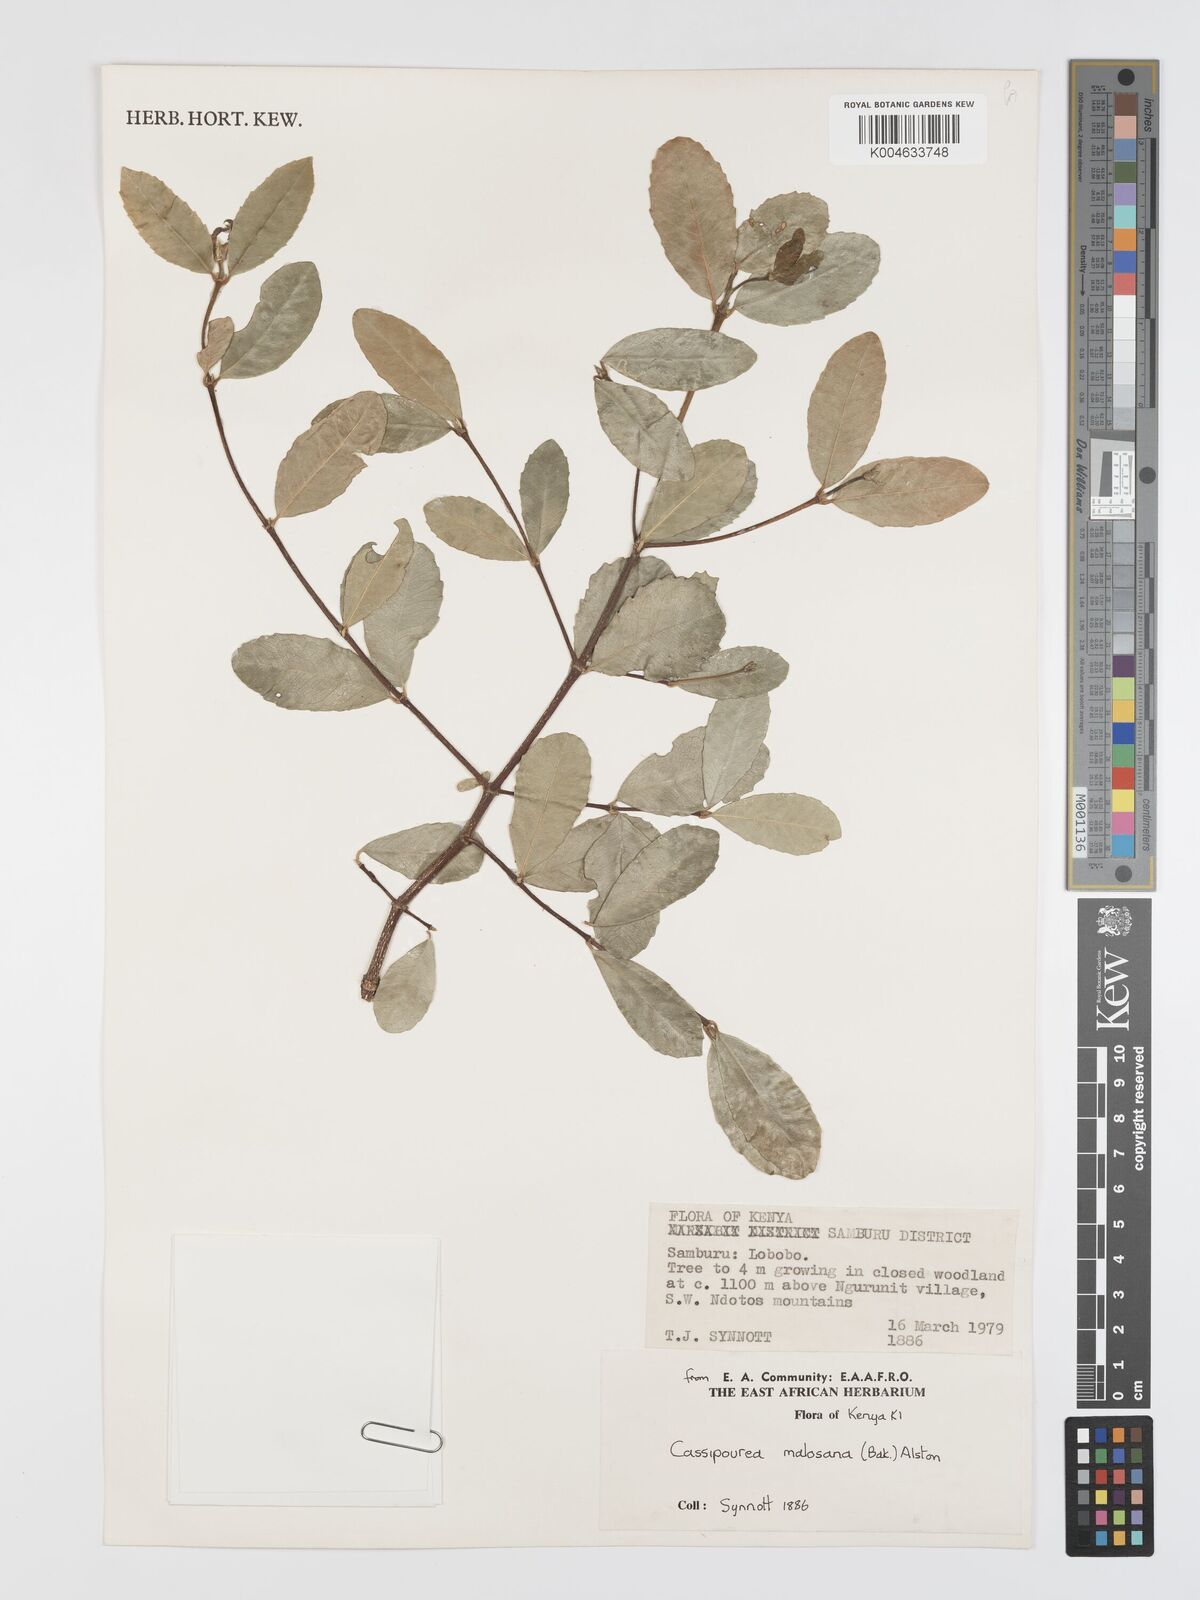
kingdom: Plantae
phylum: Tracheophyta
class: Magnoliopsida
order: Malpighiales
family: Rhizophoraceae
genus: Cassipourea
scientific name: Cassipourea
